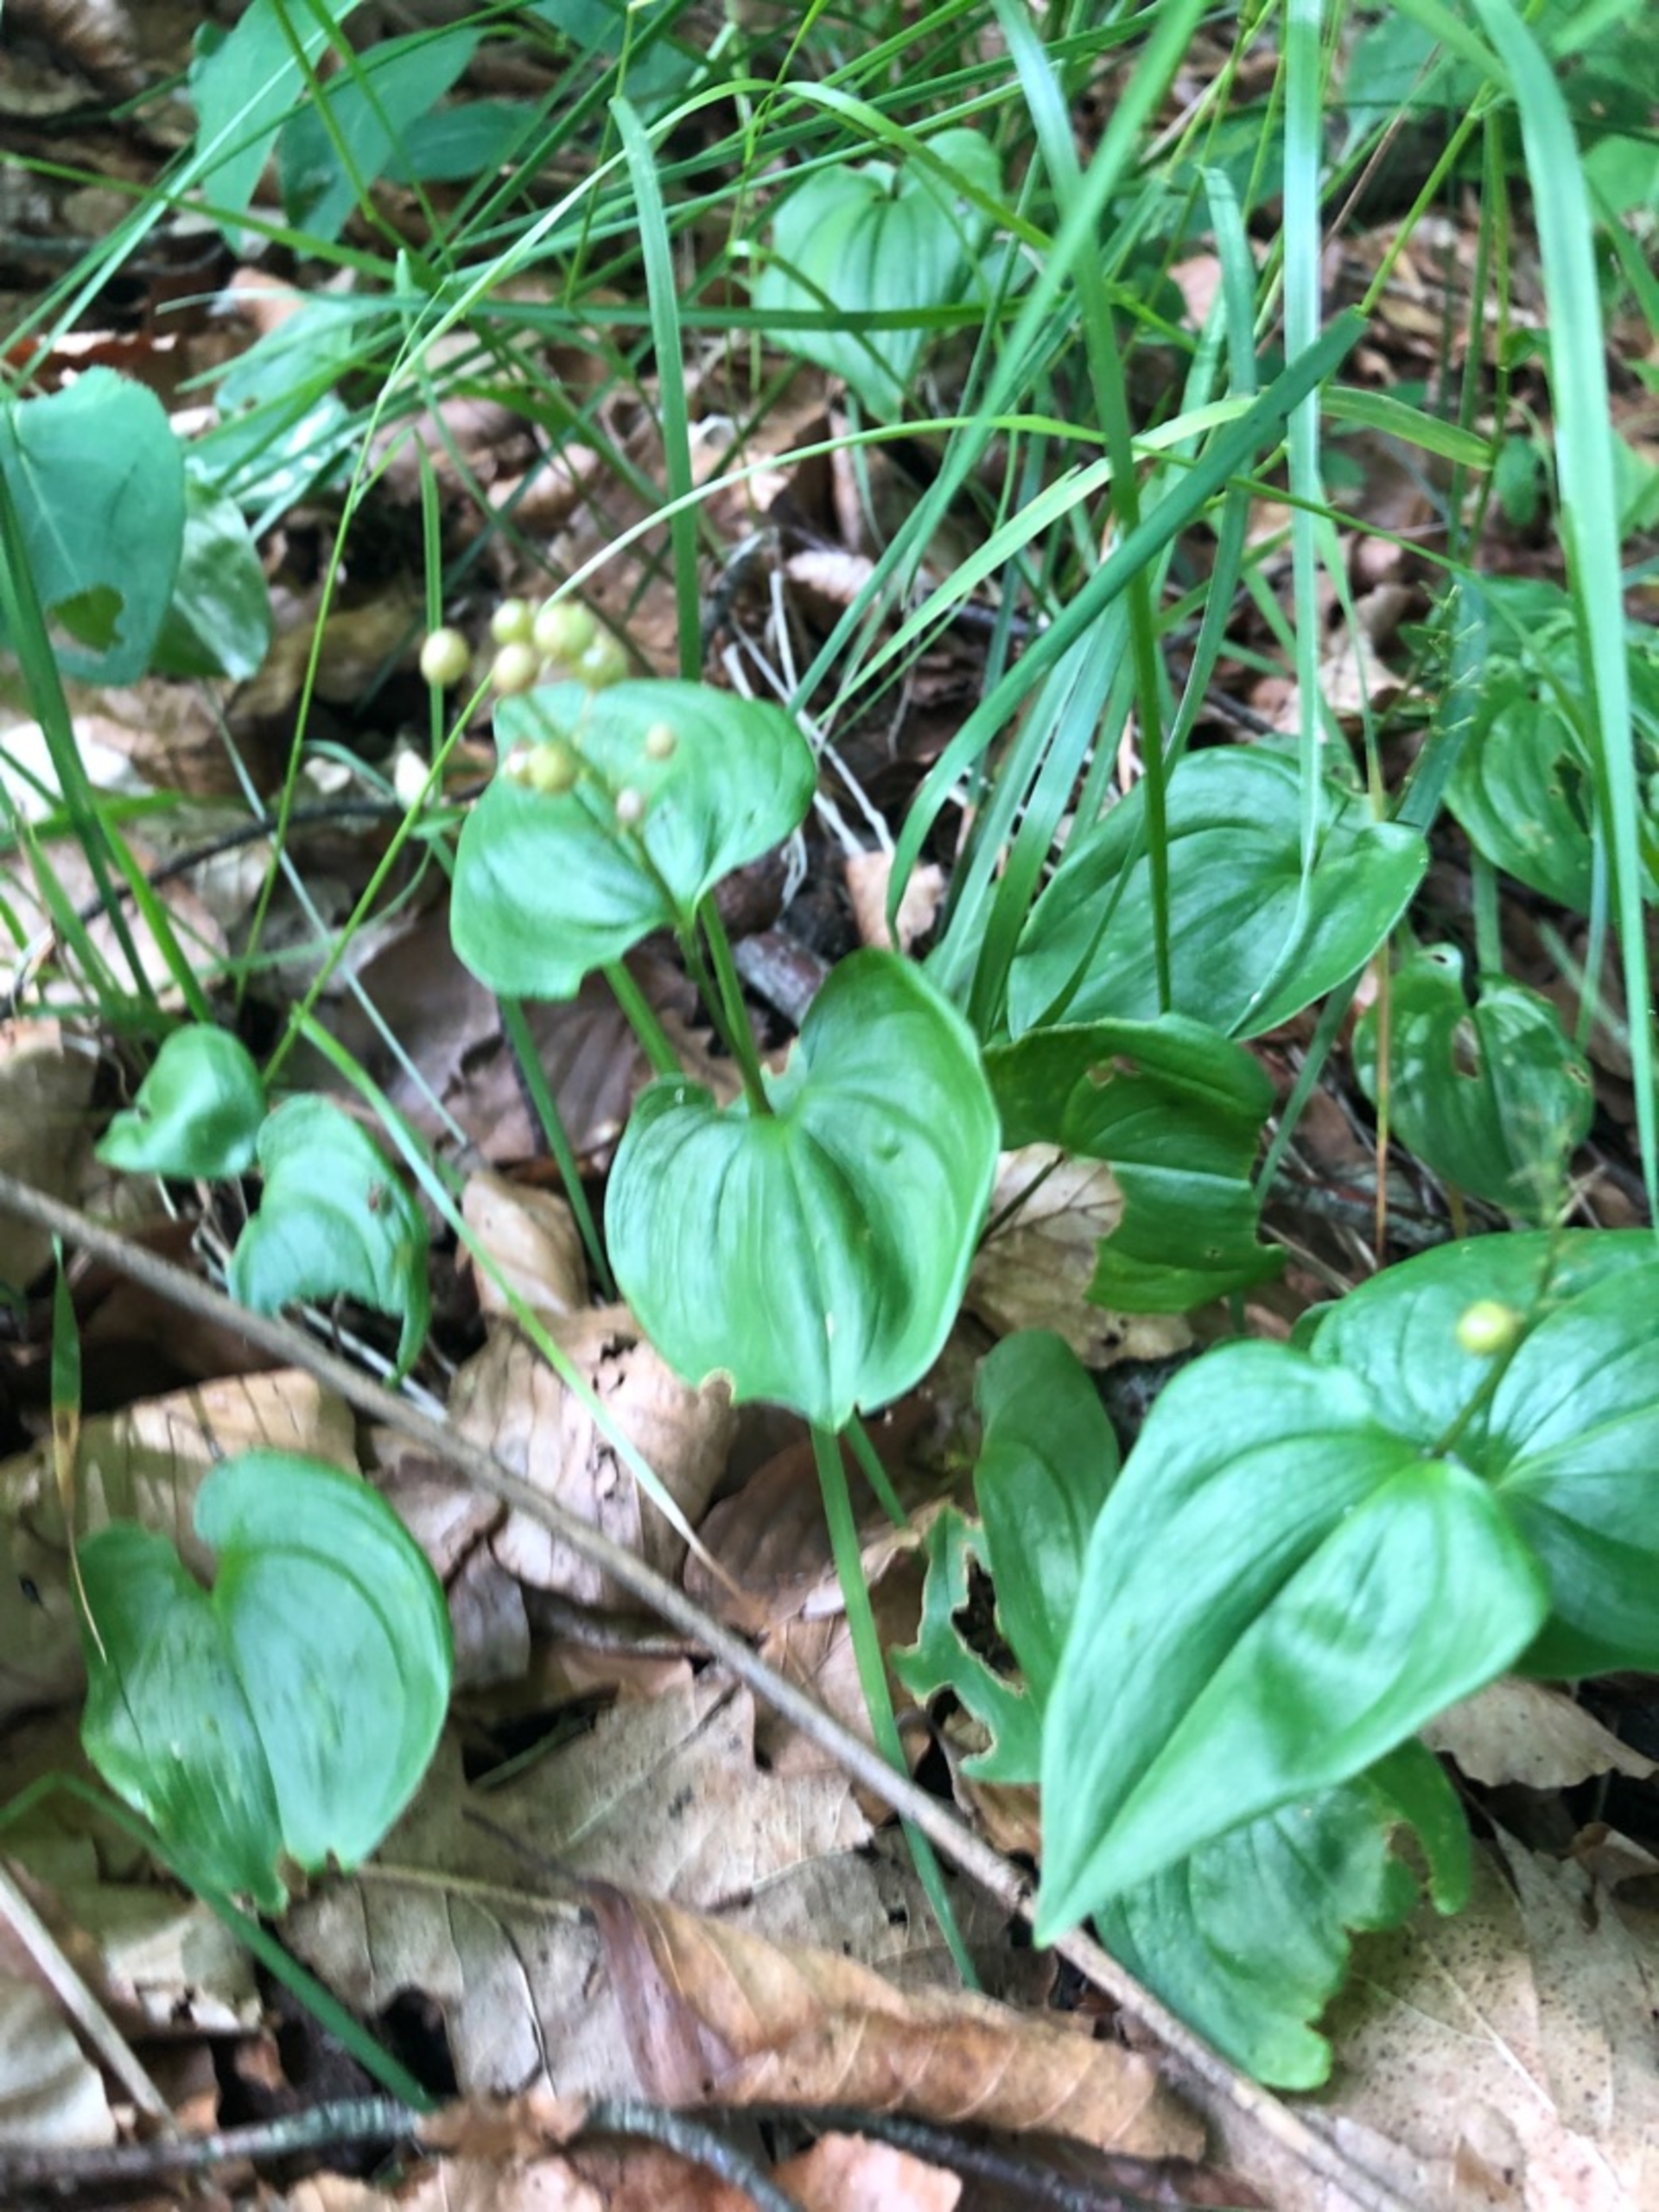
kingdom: Plantae
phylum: Tracheophyta
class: Liliopsida
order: Asparagales
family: Asparagaceae
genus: Maianthemum
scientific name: Maianthemum bifolium
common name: Majblomst
